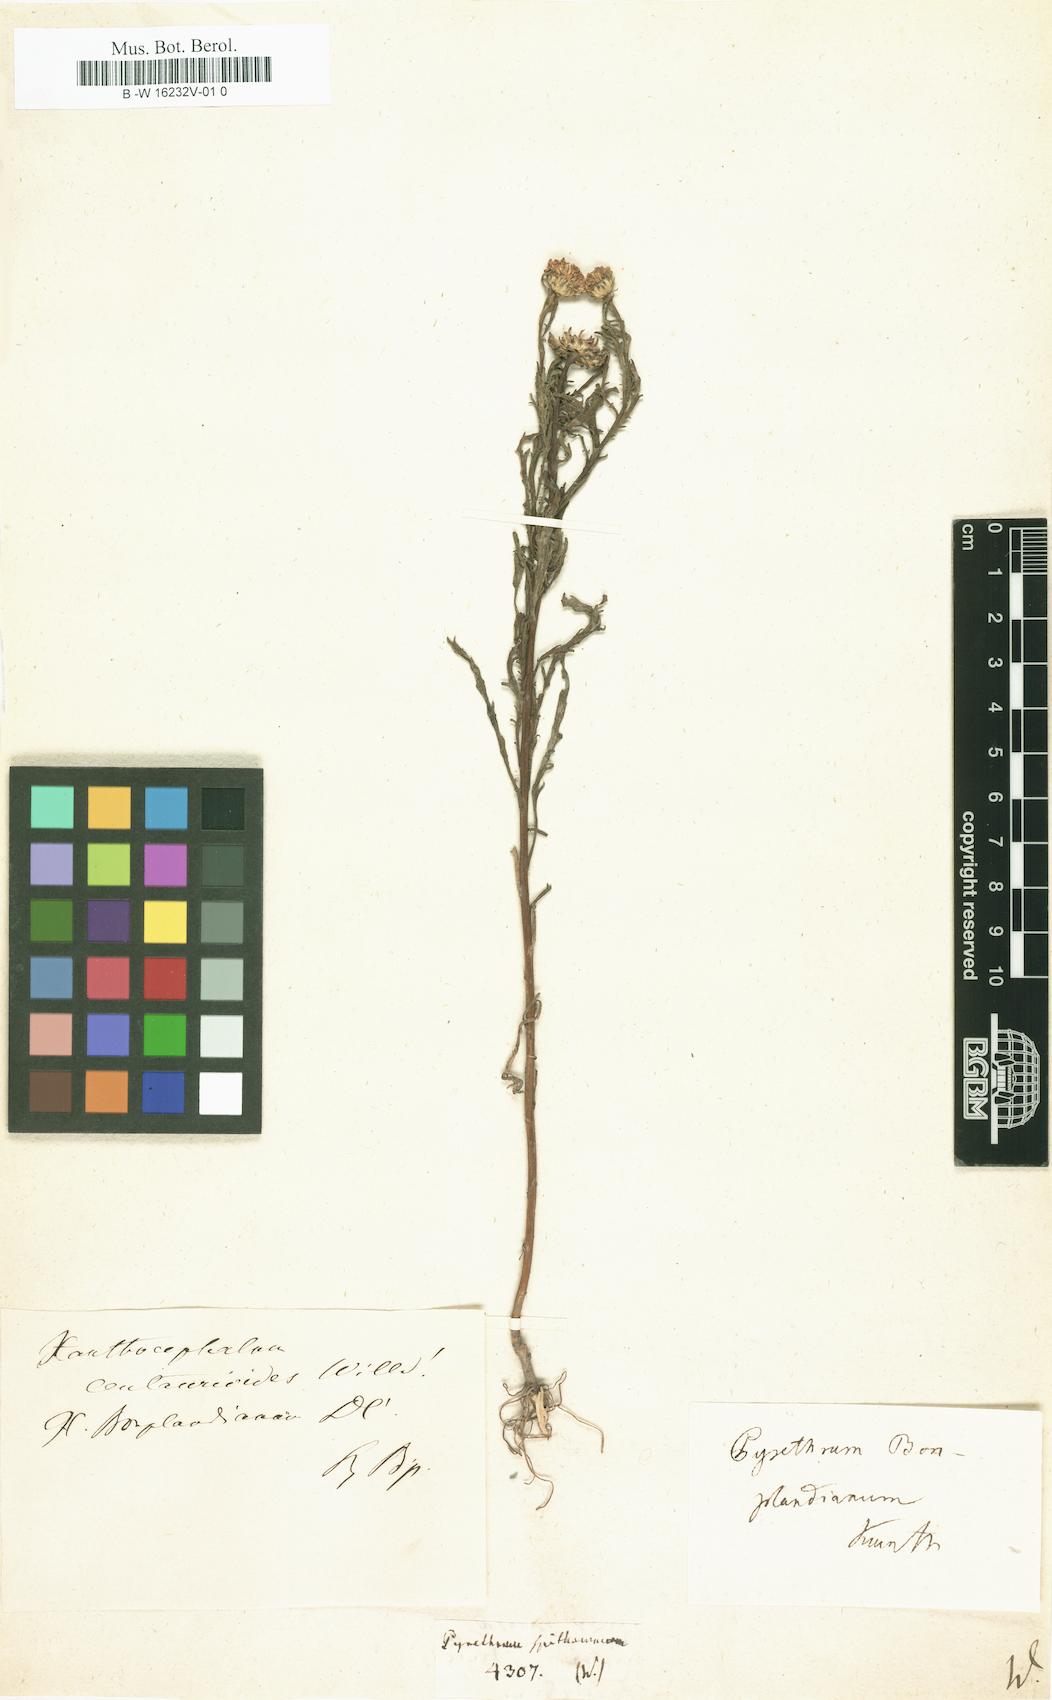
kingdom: Plantae
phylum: Tracheophyta
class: Magnoliopsida
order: Asterales
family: Asteraceae
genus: Pyrethrum
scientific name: Pyrethrum
